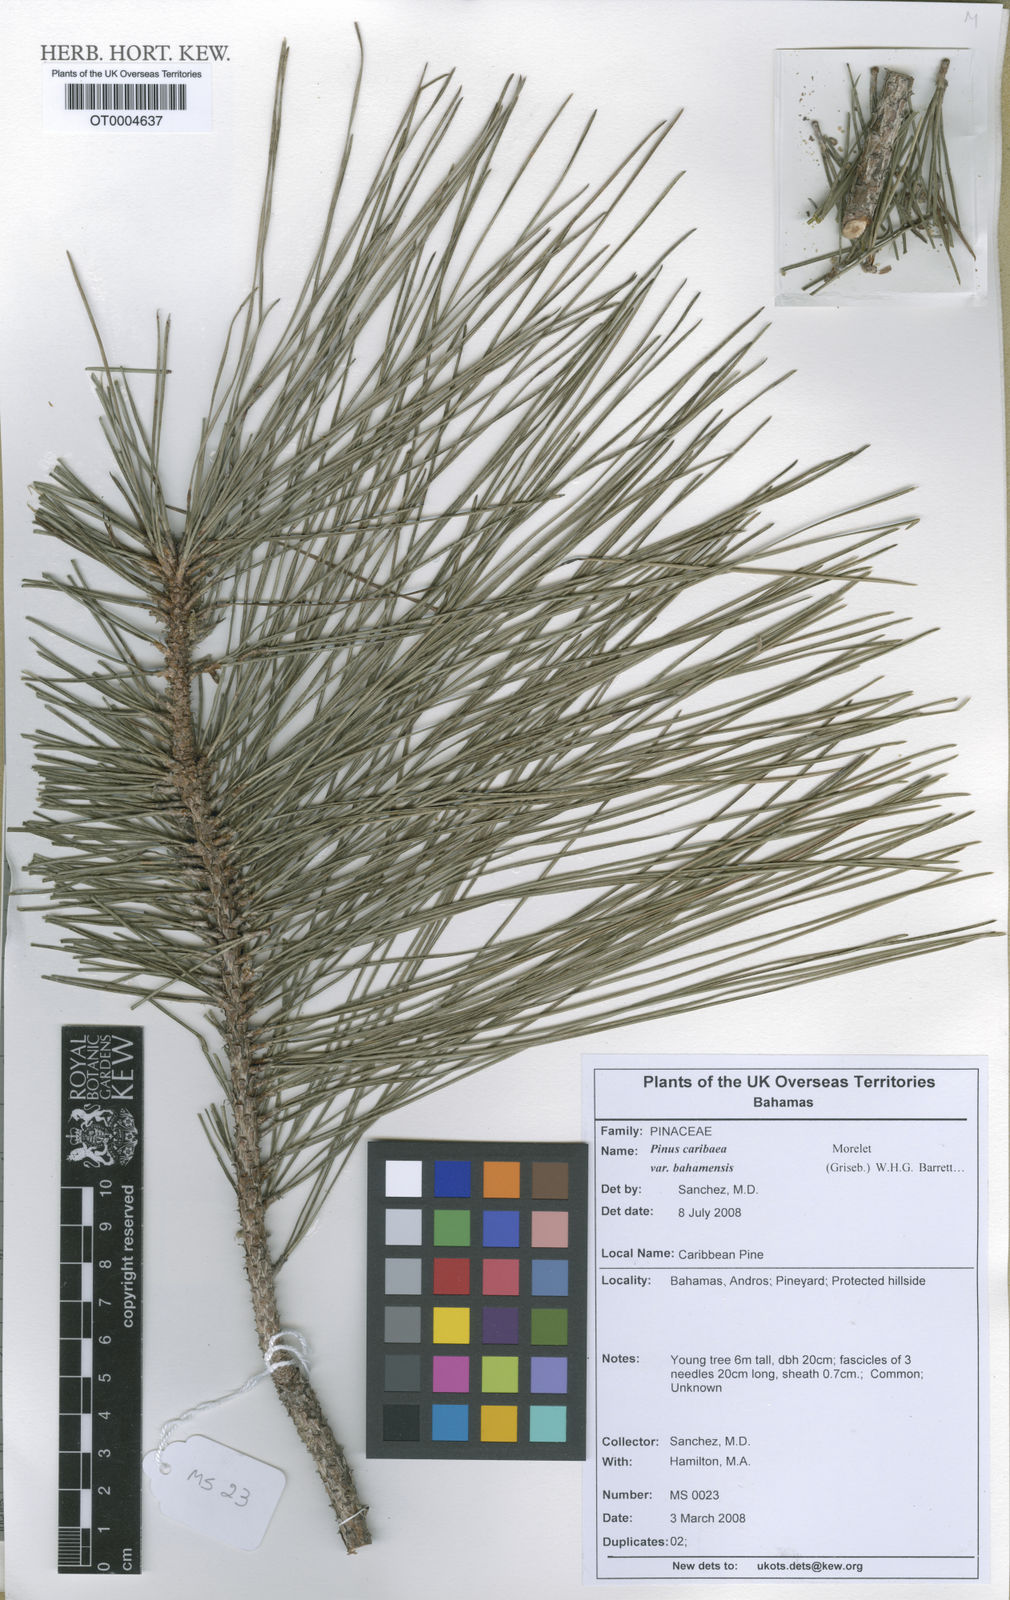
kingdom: Plantae
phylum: Tracheophyta
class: Pinopsida
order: Pinales
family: Pinaceae
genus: Pinus
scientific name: Pinus caribaea
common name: Caribbean pine
